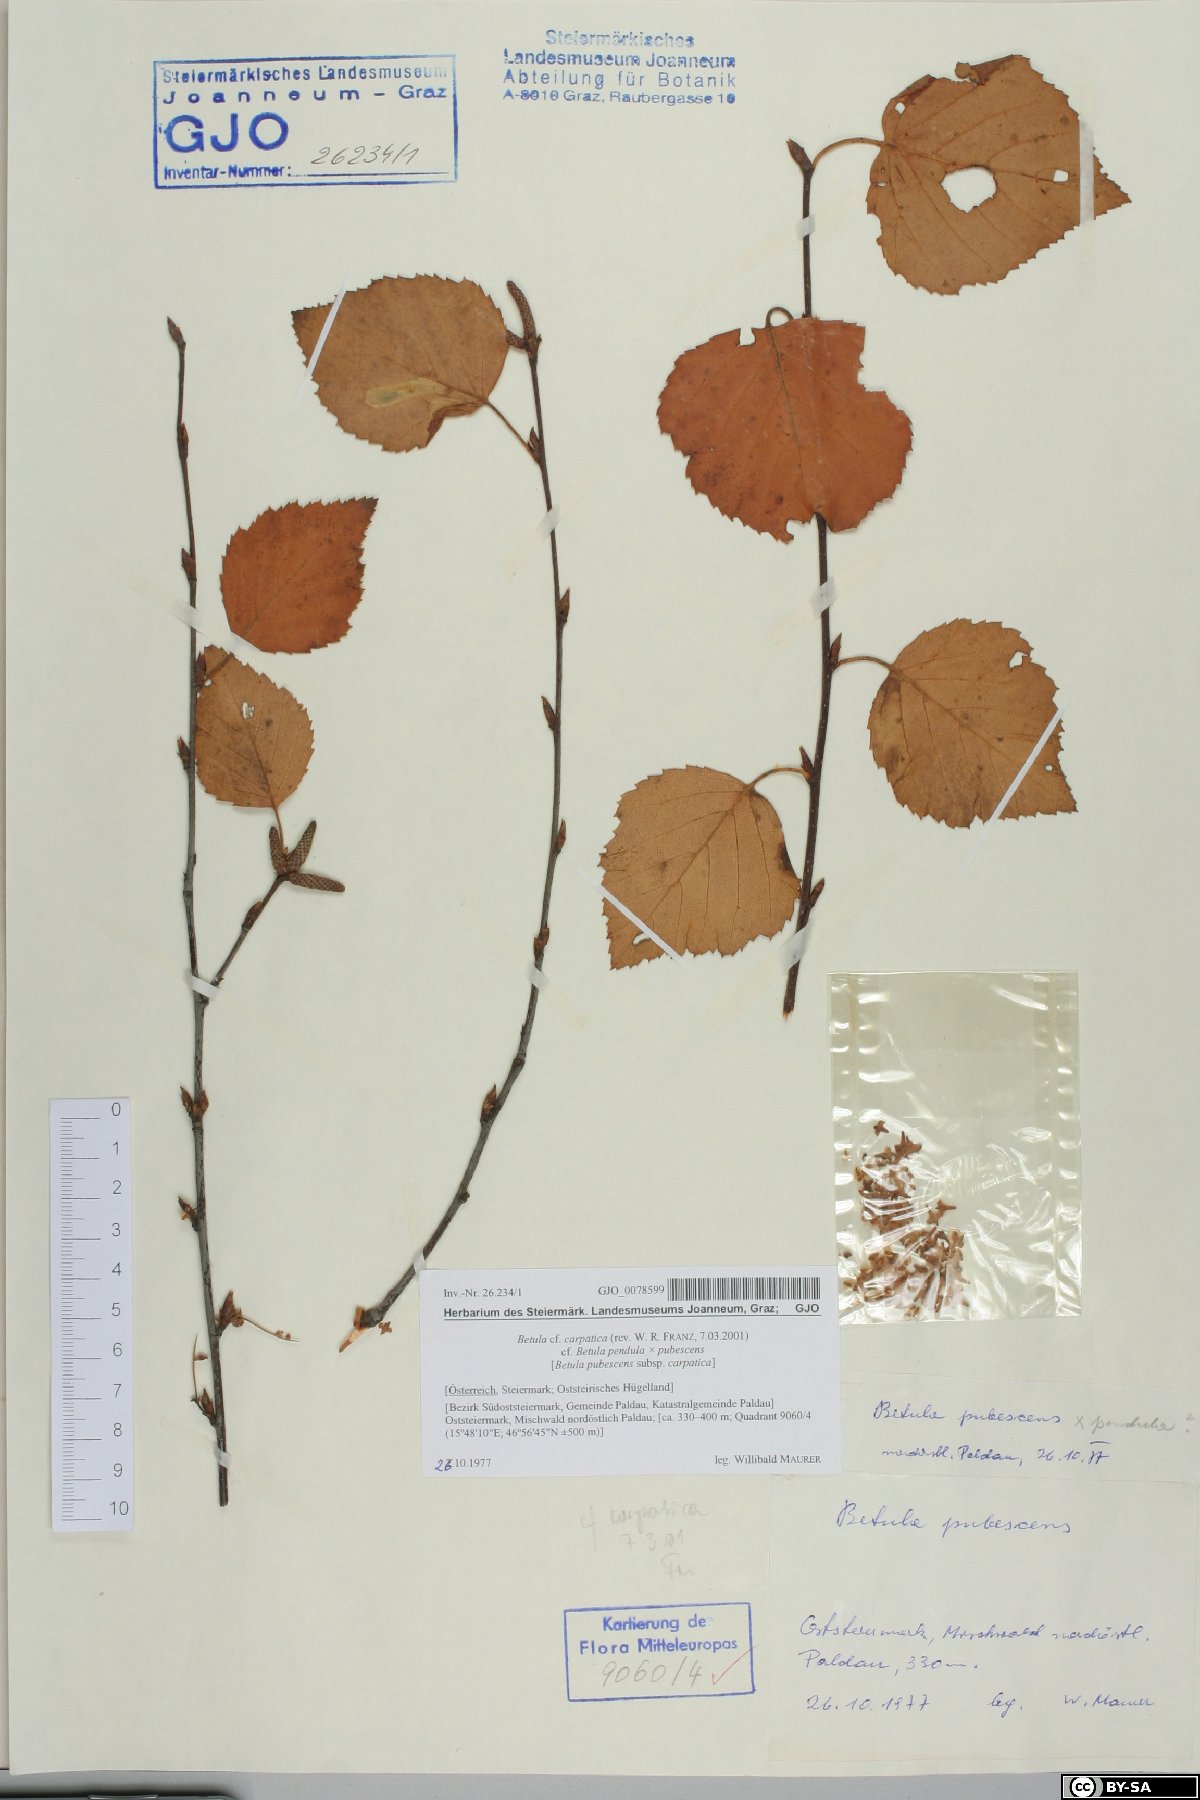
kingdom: Plantae
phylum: Tracheophyta
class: Magnoliopsida
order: Fagales
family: Betulaceae
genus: Betula
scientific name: Betula pubescens
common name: Downy birch
